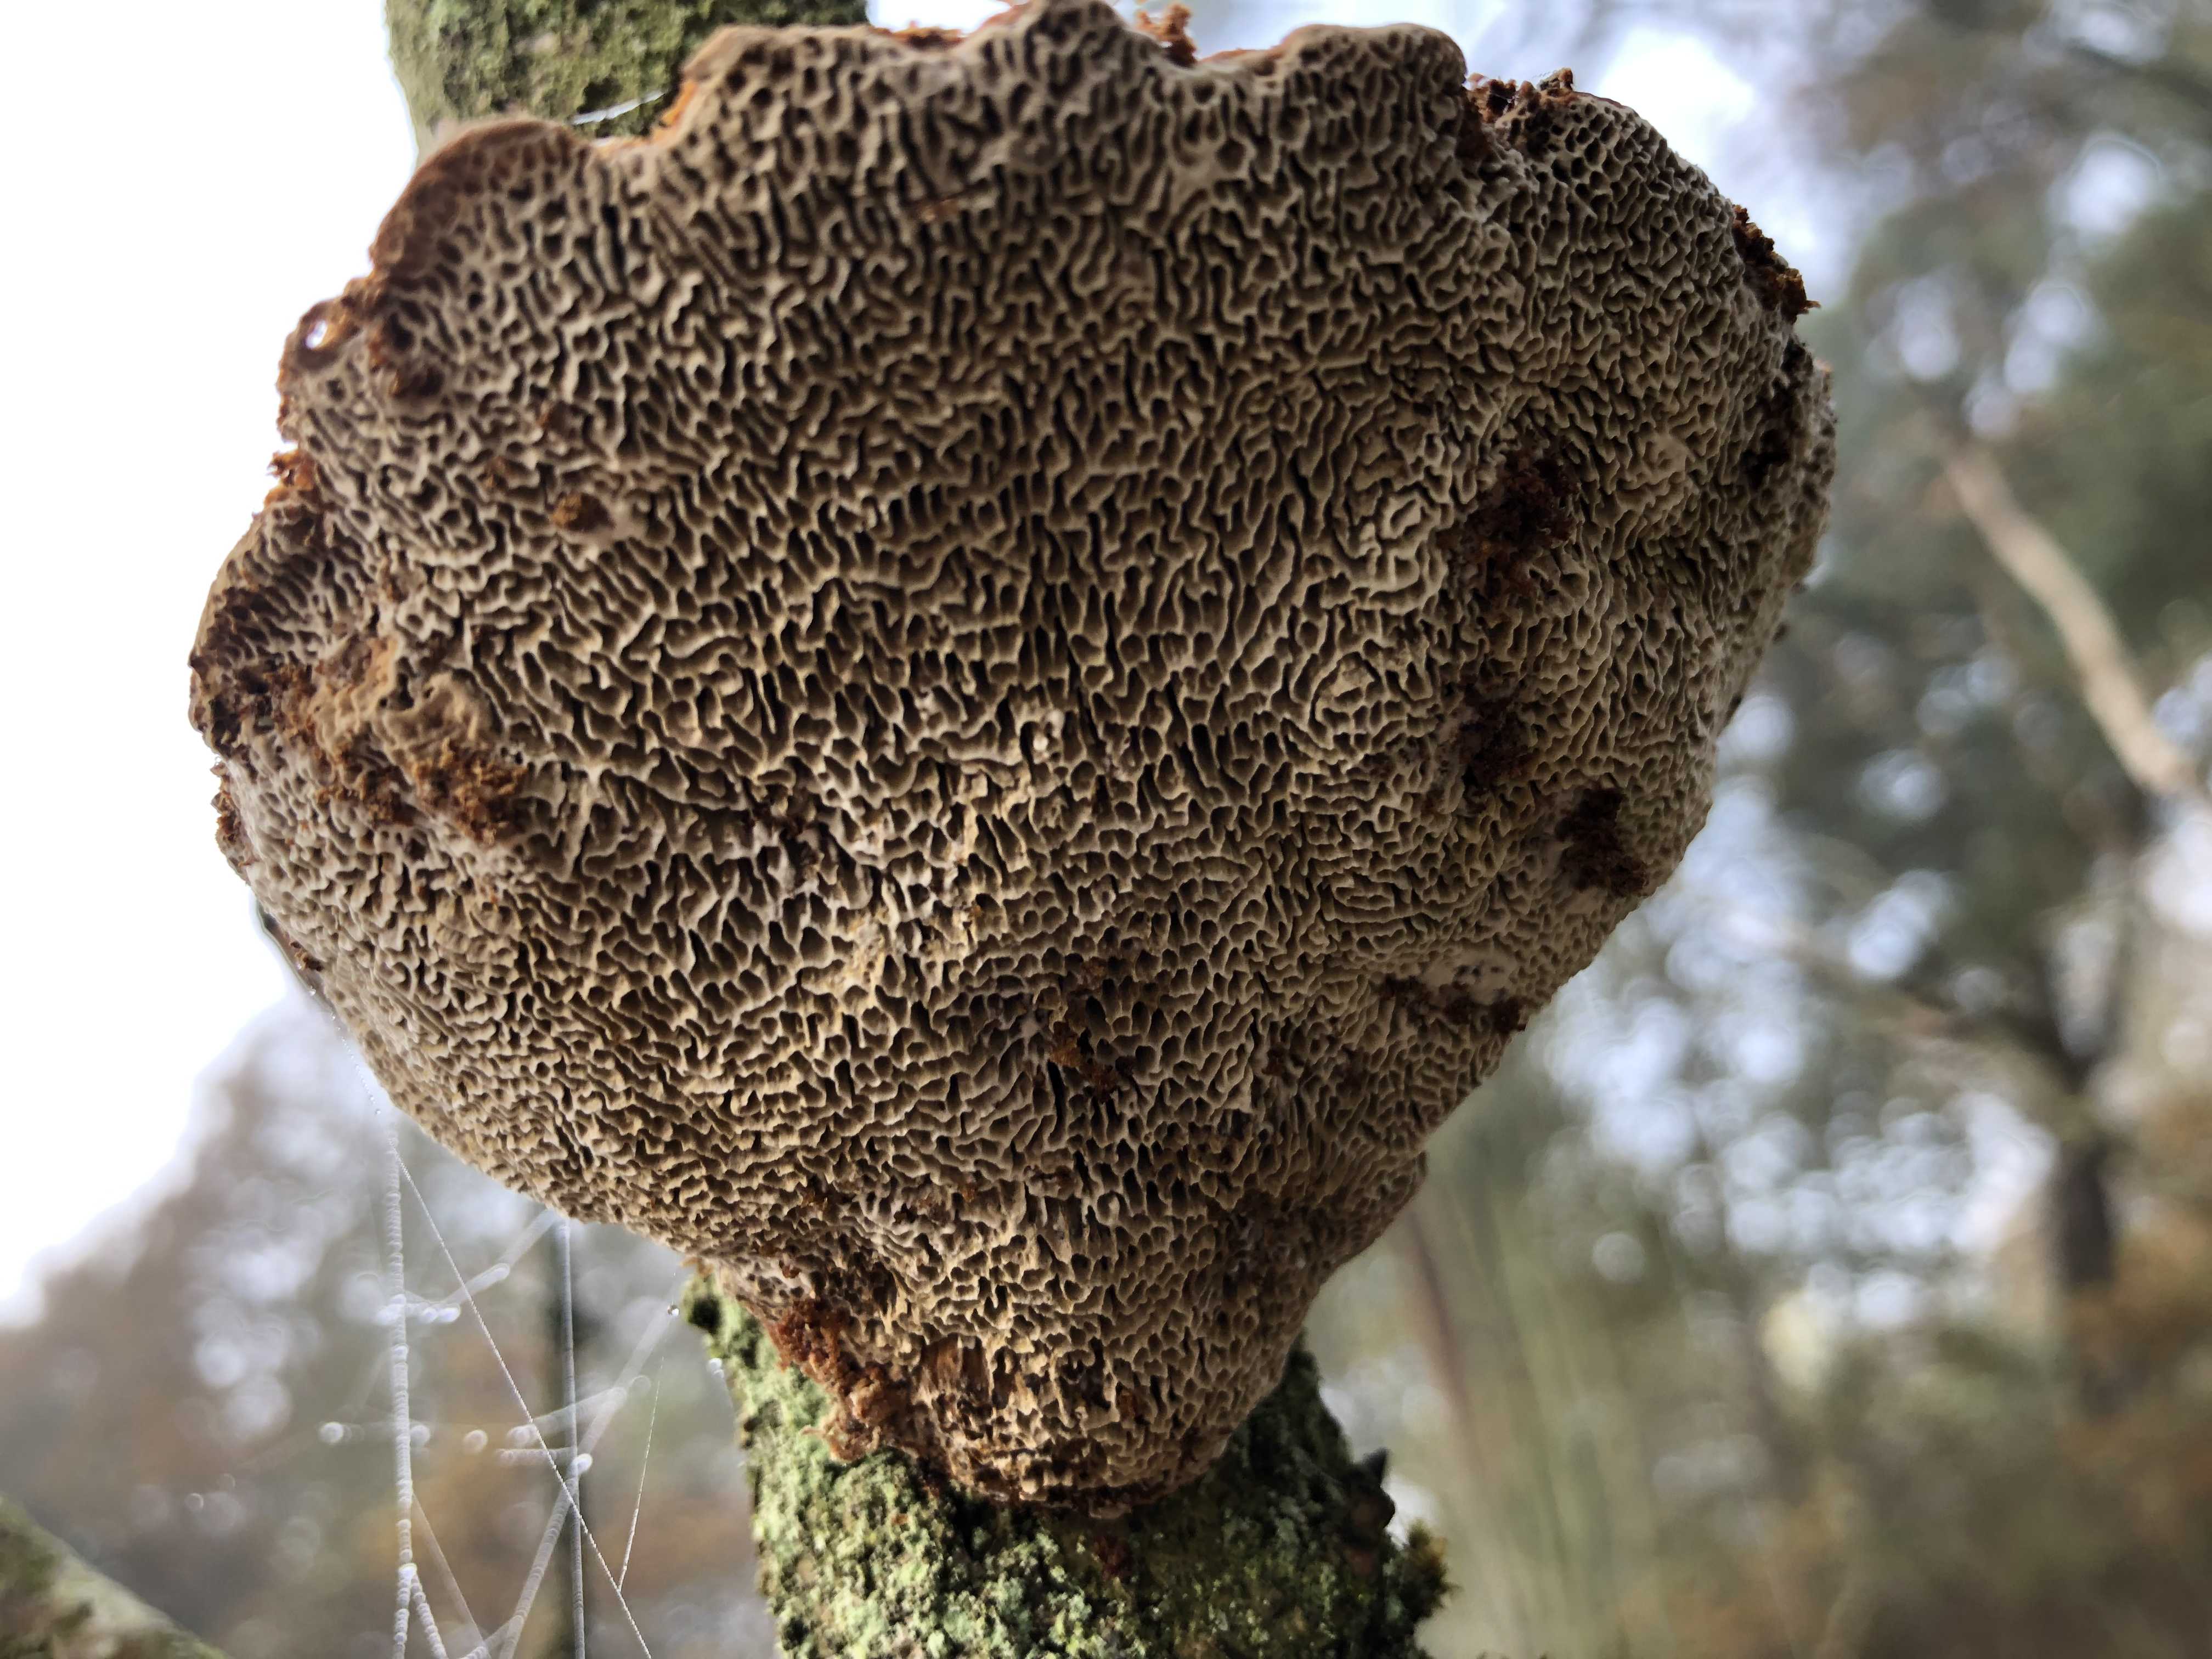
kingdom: Fungi
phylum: Basidiomycota
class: Agaricomycetes
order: Polyporales
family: Polyporaceae
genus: Daedaleopsis
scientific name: Daedaleopsis confragosa
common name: rødmende læderporesvamp
